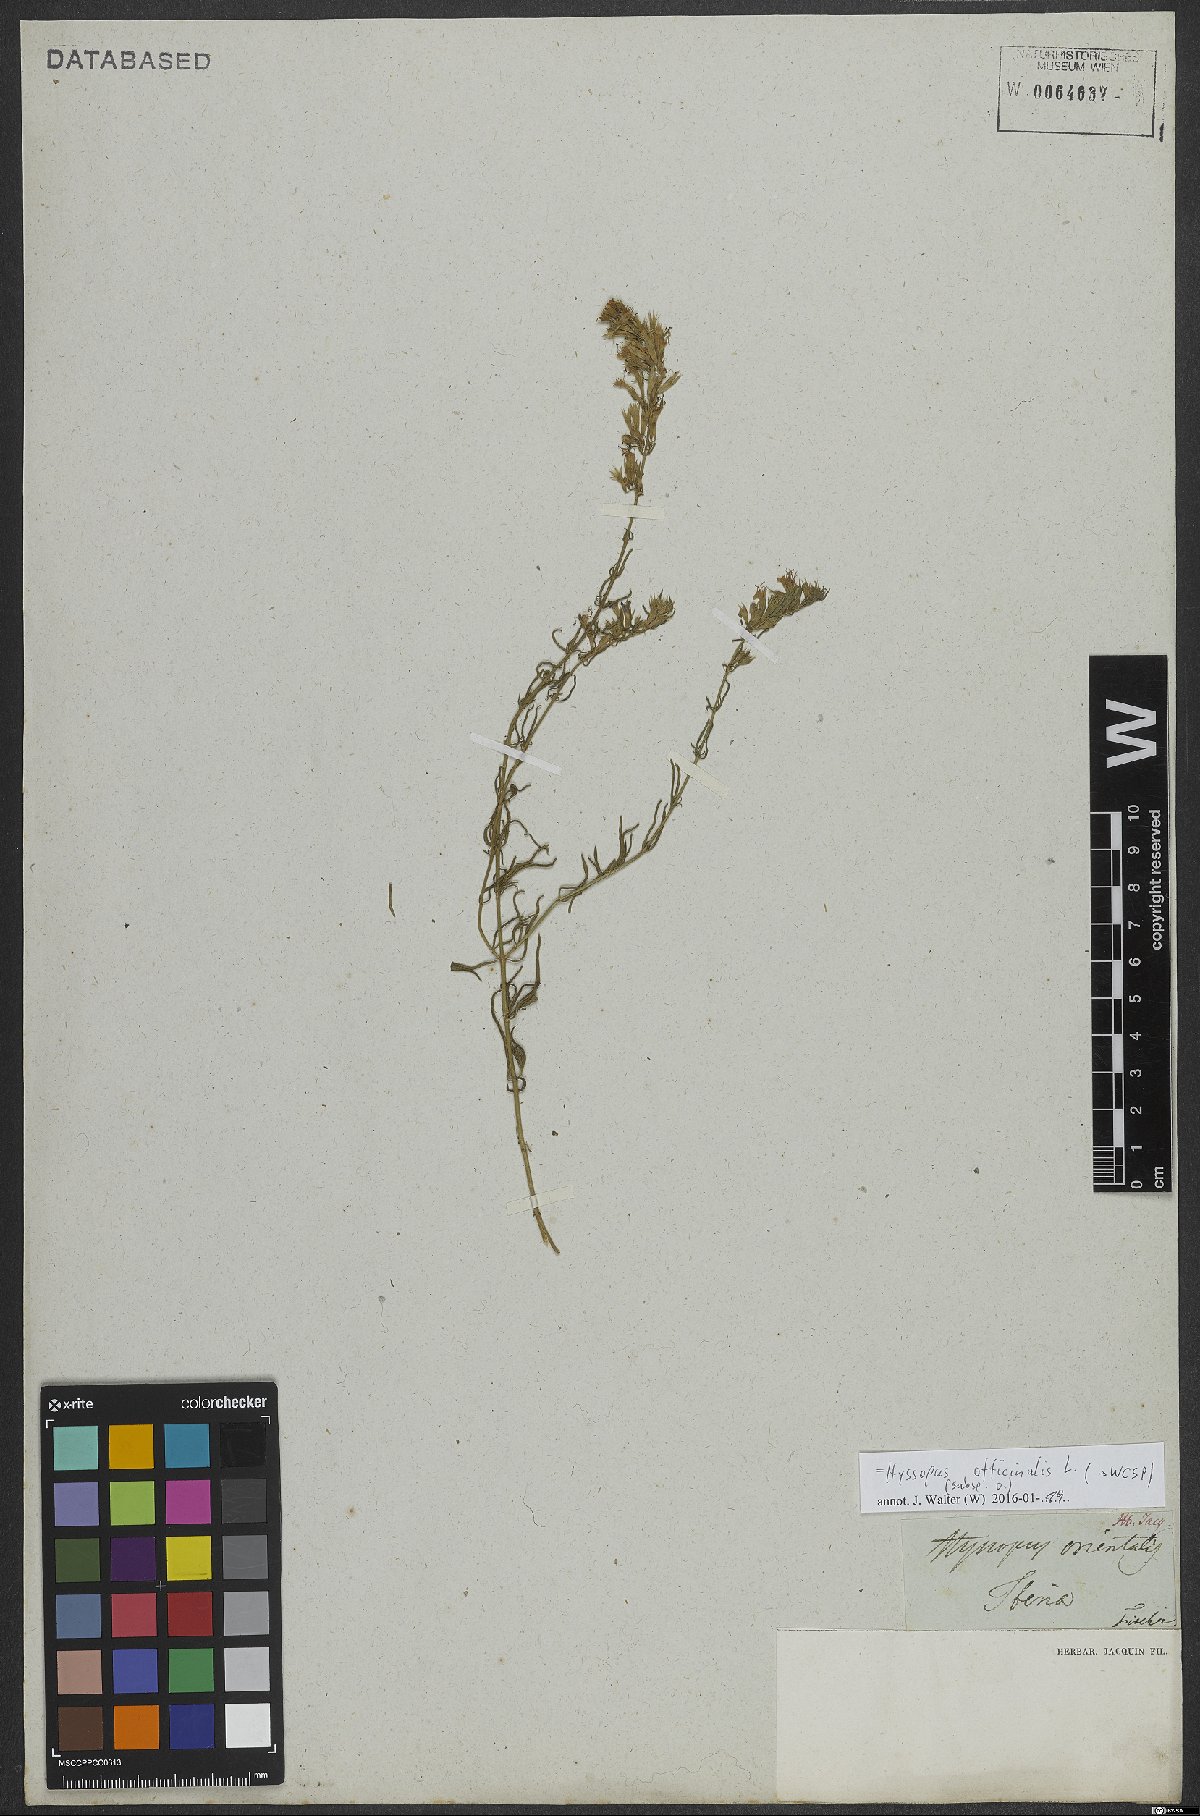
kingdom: Plantae
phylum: Tracheophyta
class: Magnoliopsida
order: Lamiales
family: Lamiaceae
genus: Hyssopus
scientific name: Hyssopus officinalis
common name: Hyssop
